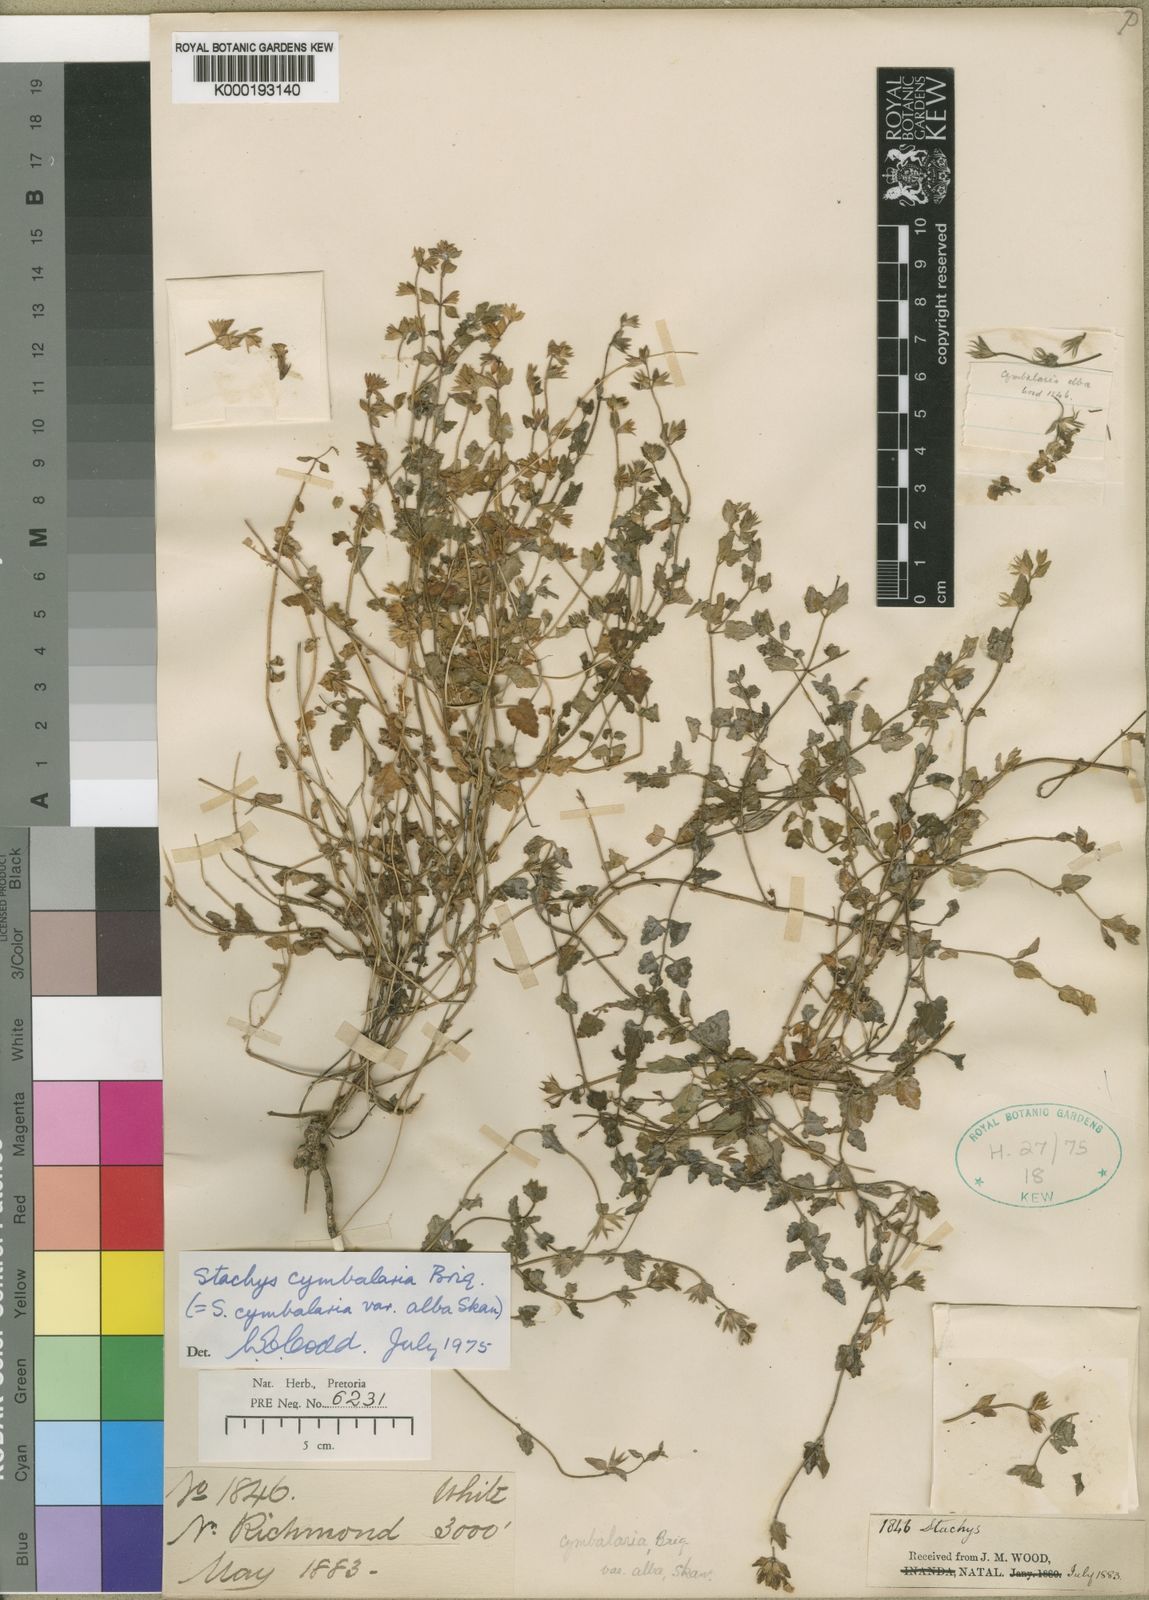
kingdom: Plantae
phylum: Tracheophyta
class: Magnoliopsida
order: Lamiales
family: Lamiaceae
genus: Stachys
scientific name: Stachys cymbalaria
